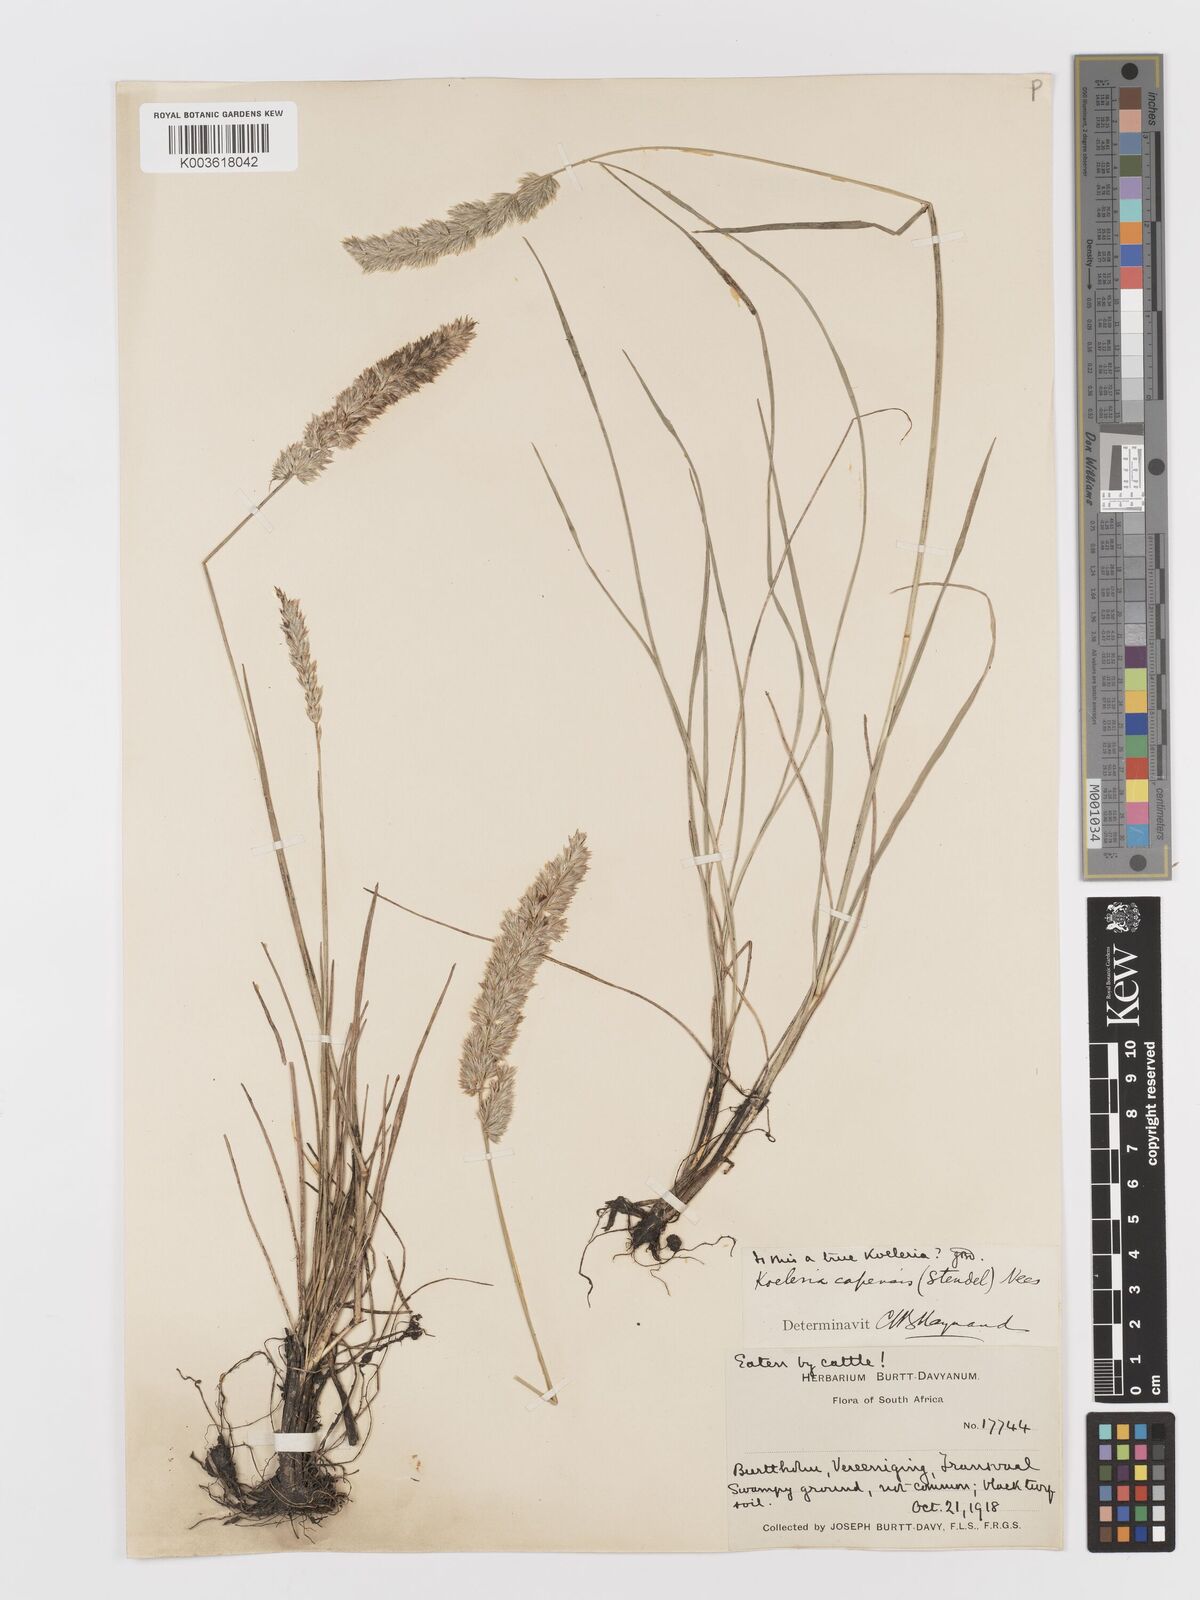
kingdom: Plantae
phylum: Tracheophyta
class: Liliopsida
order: Poales
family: Poaceae
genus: Koeleria
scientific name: Koeleria capensis
